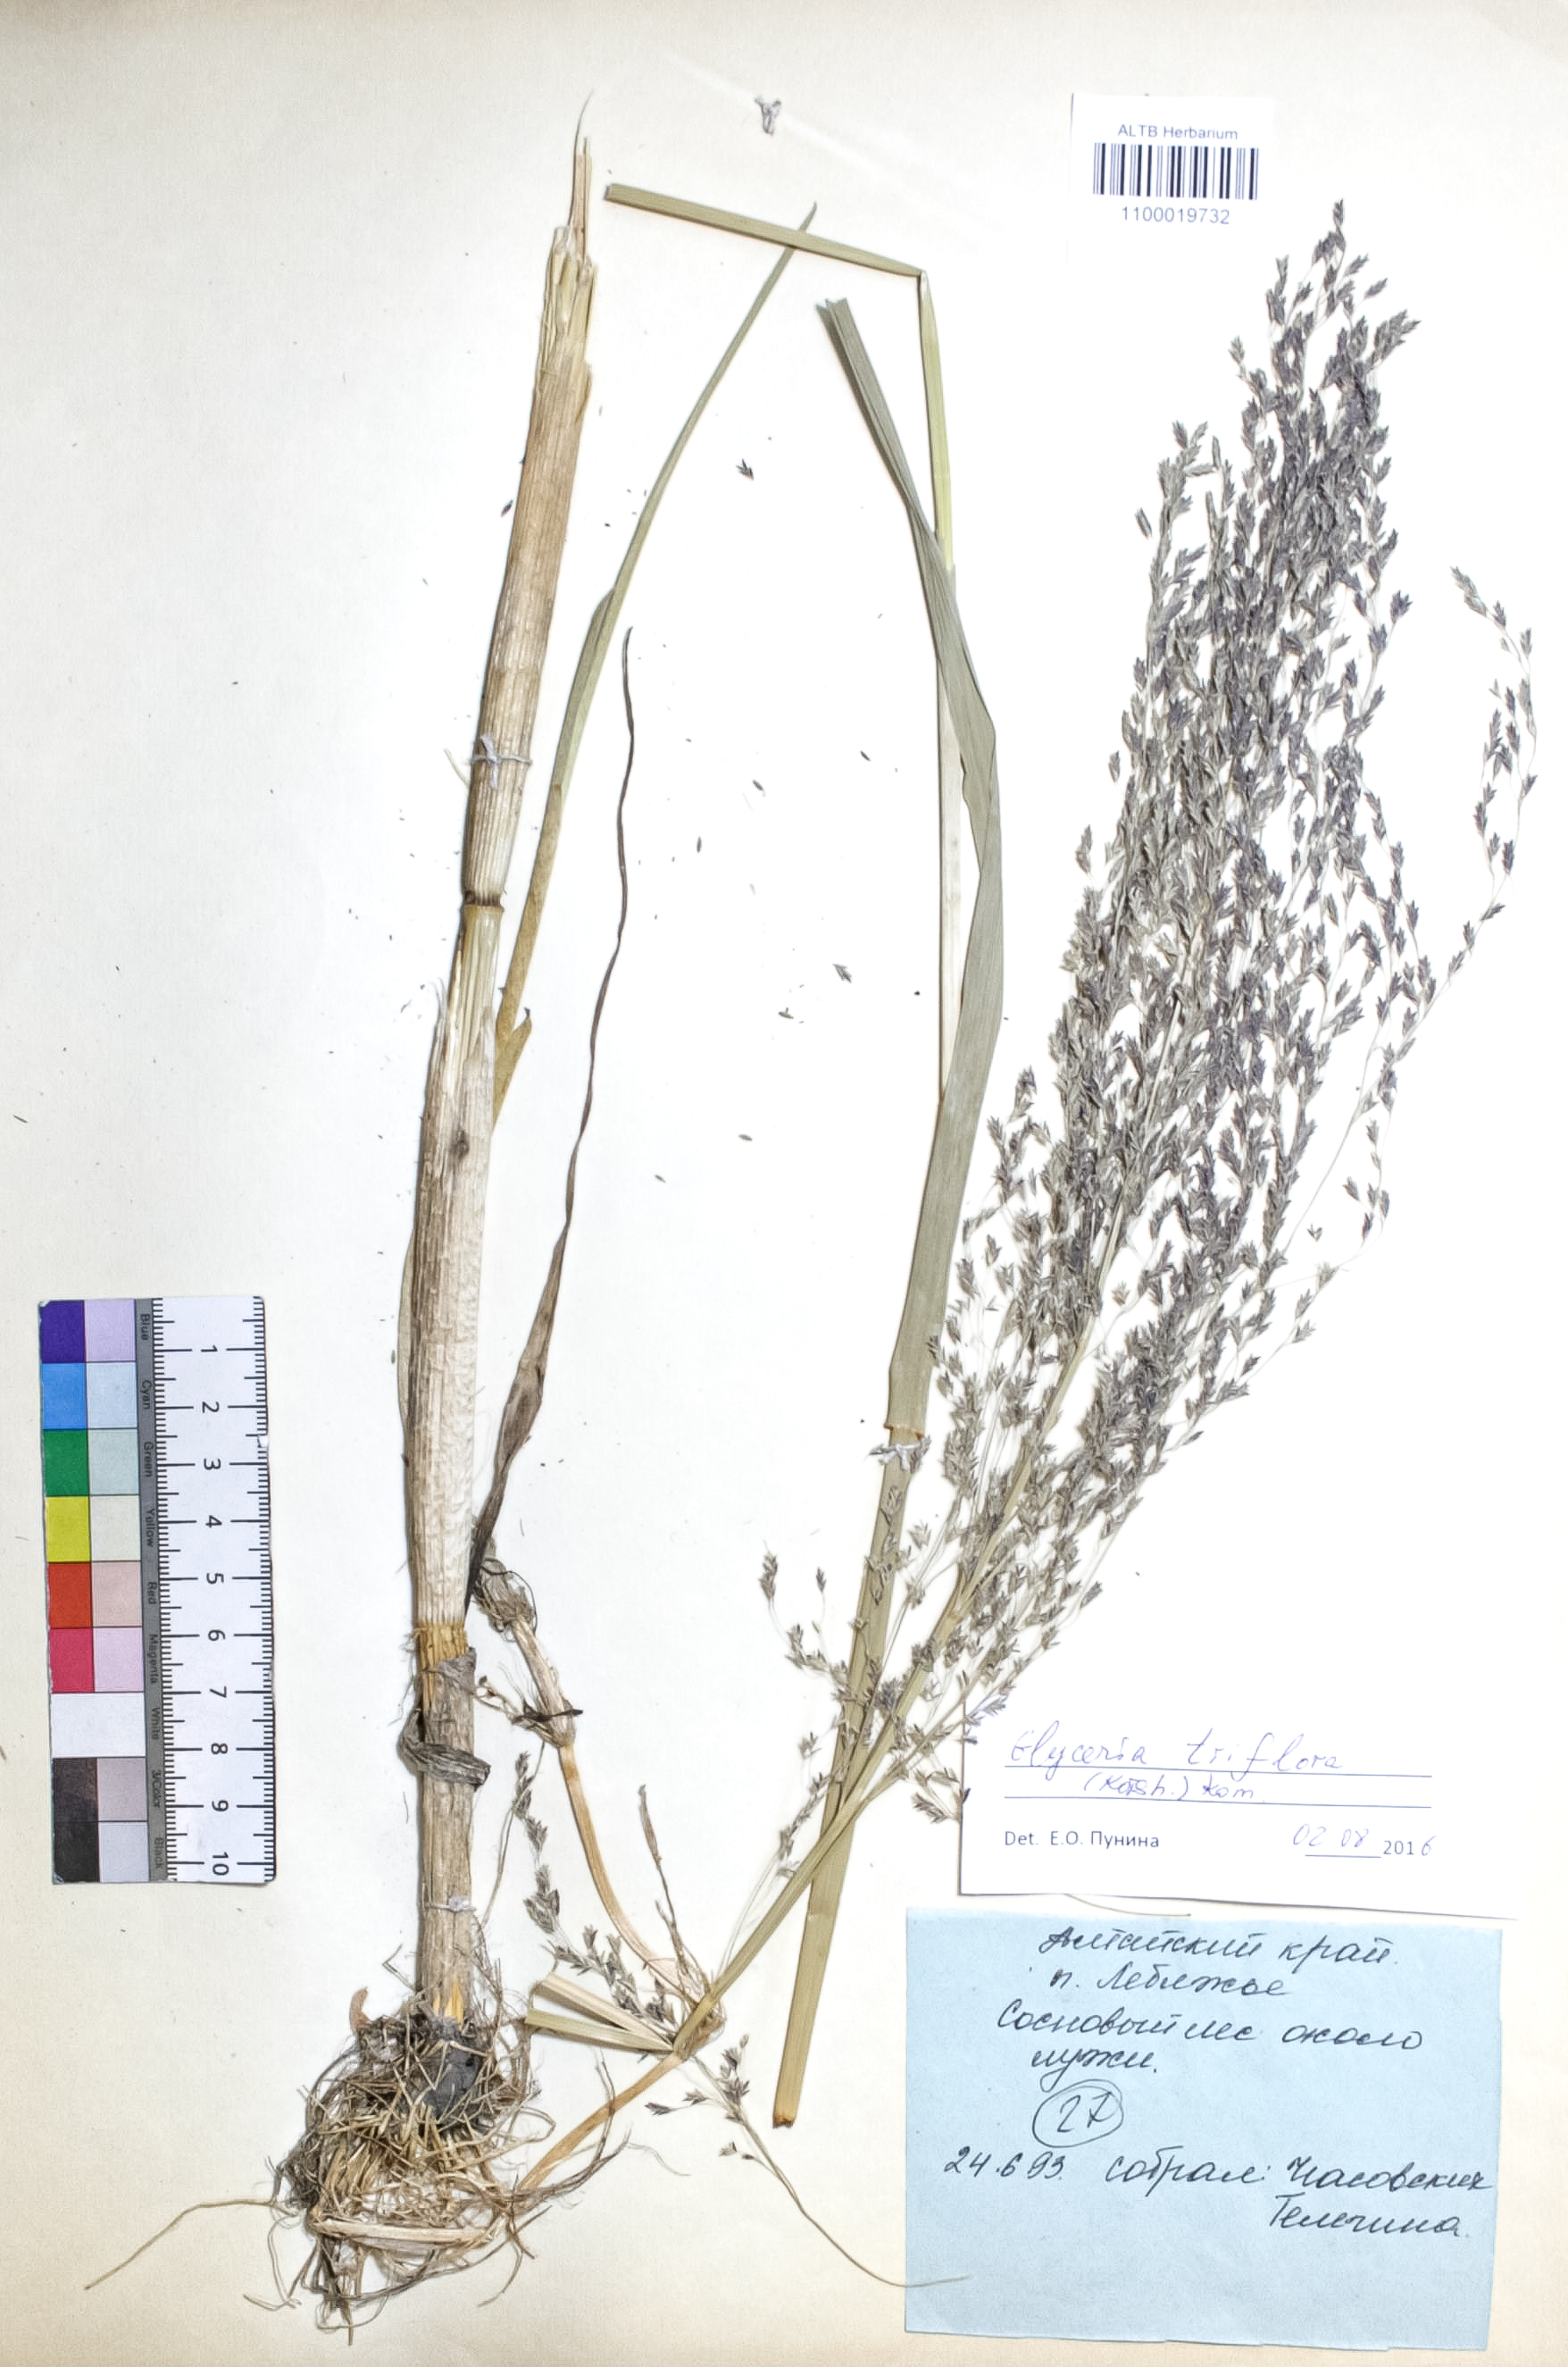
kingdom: Plantae
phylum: Tracheophyta
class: Liliopsida
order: Poales
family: Poaceae
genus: Glyceria
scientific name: Glyceria lithuanica
